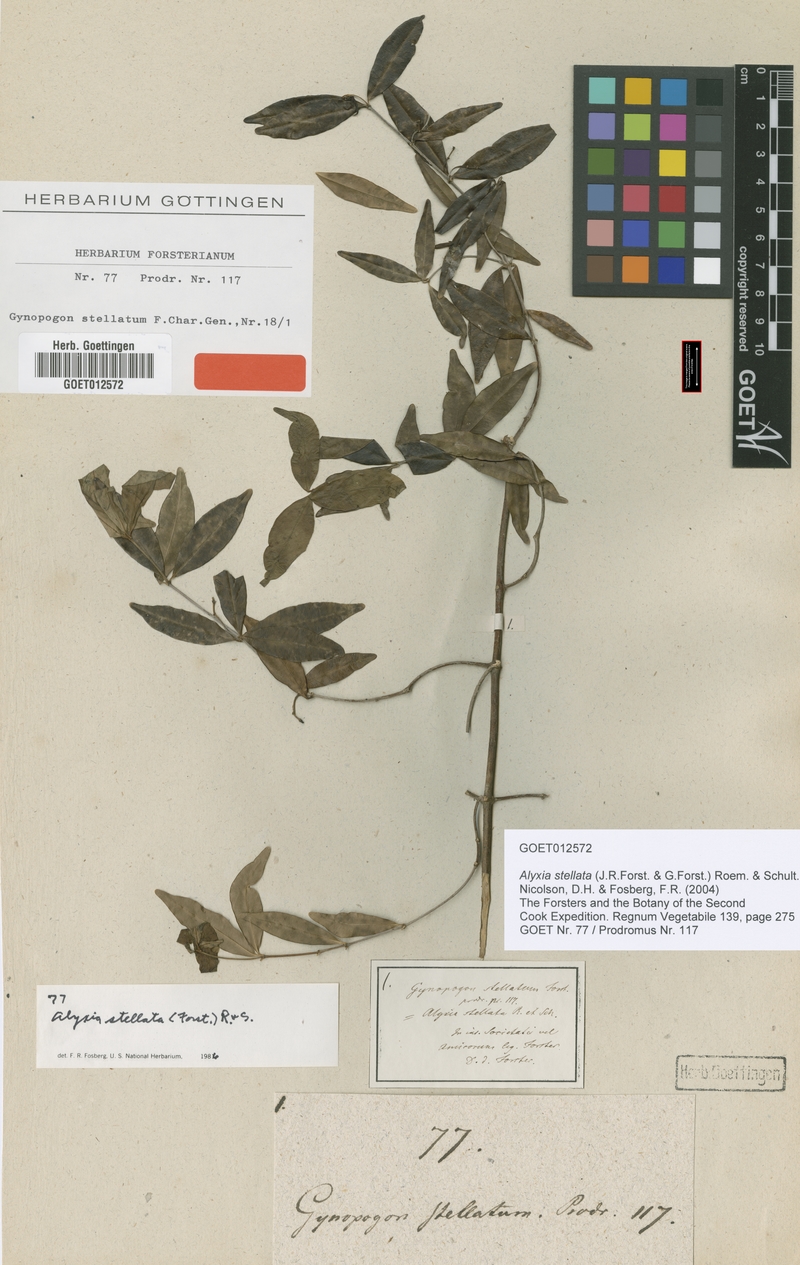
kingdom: Plantae
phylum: Tracheophyta
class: Magnoliopsida
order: Gentianales
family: Apocynaceae
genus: Alyxia
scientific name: Alyxia stellata
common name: Maile
